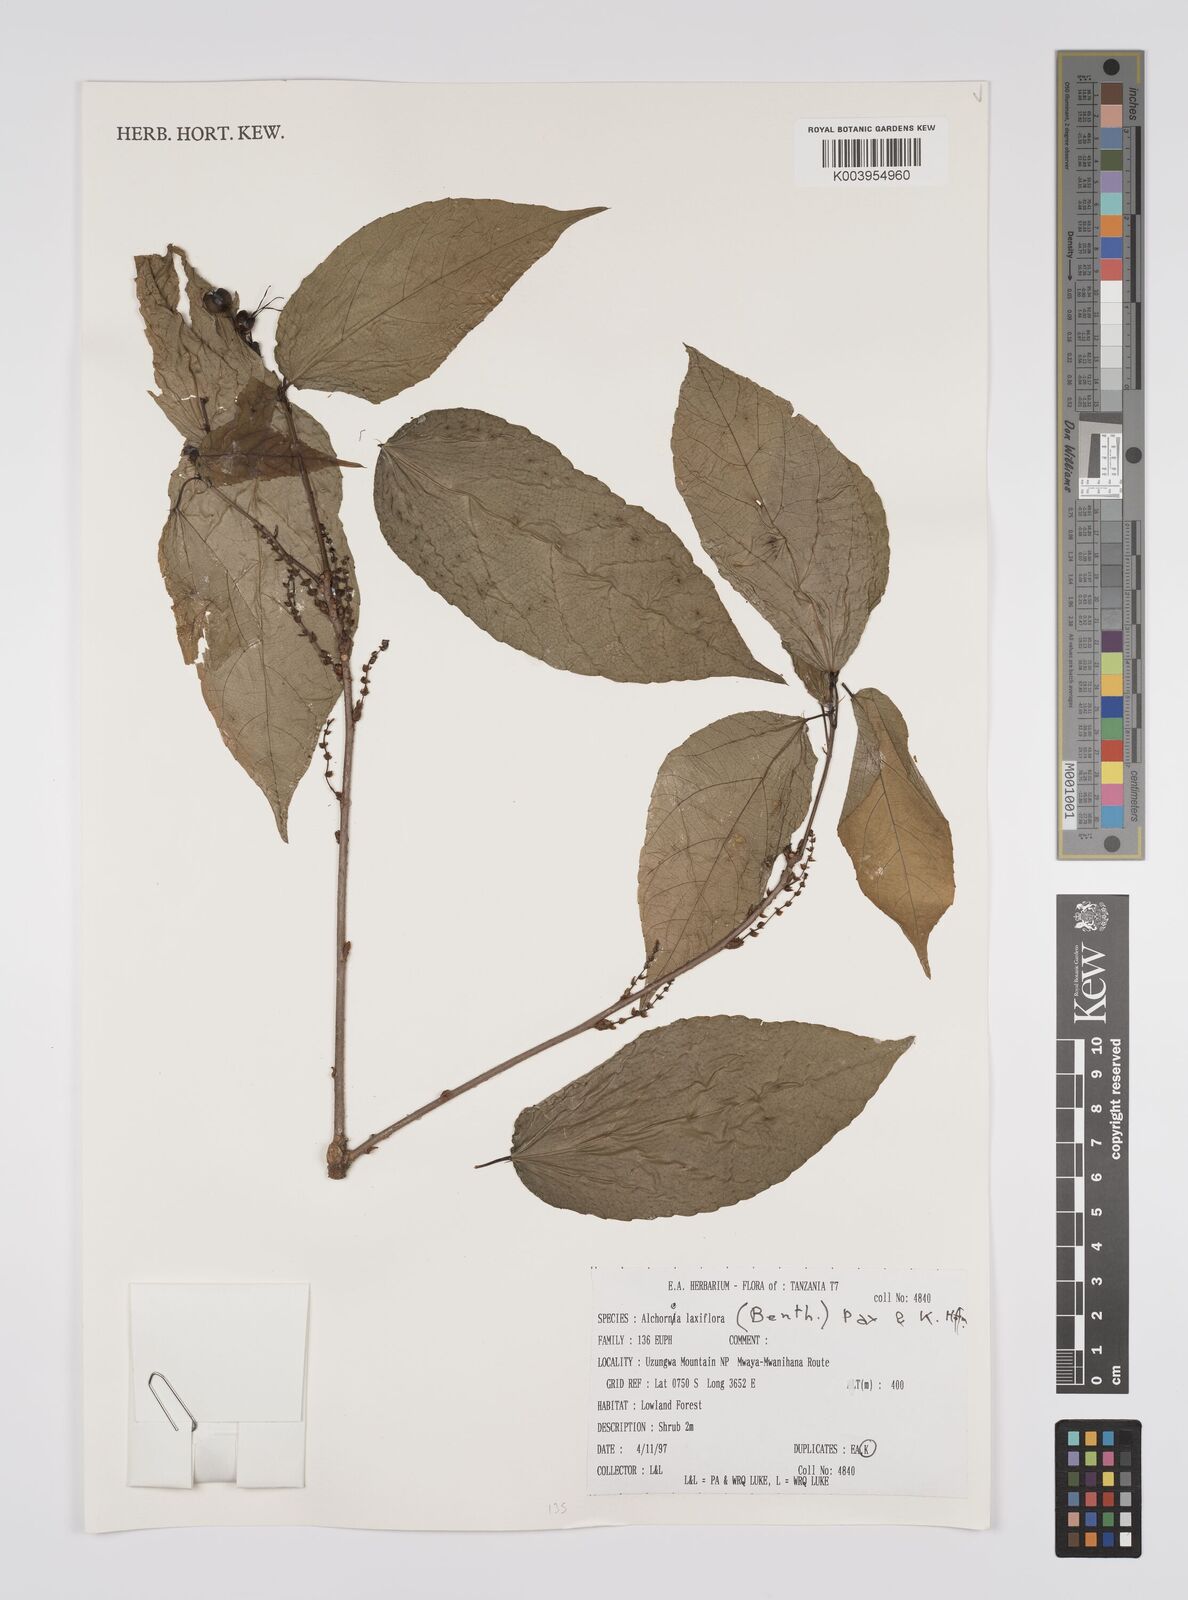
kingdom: Plantae
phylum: Tracheophyta
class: Magnoliopsida
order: Malpighiales
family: Euphorbiaceae
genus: Alchornea
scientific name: Alchornea laxiflora
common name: Lowveld bead-string
